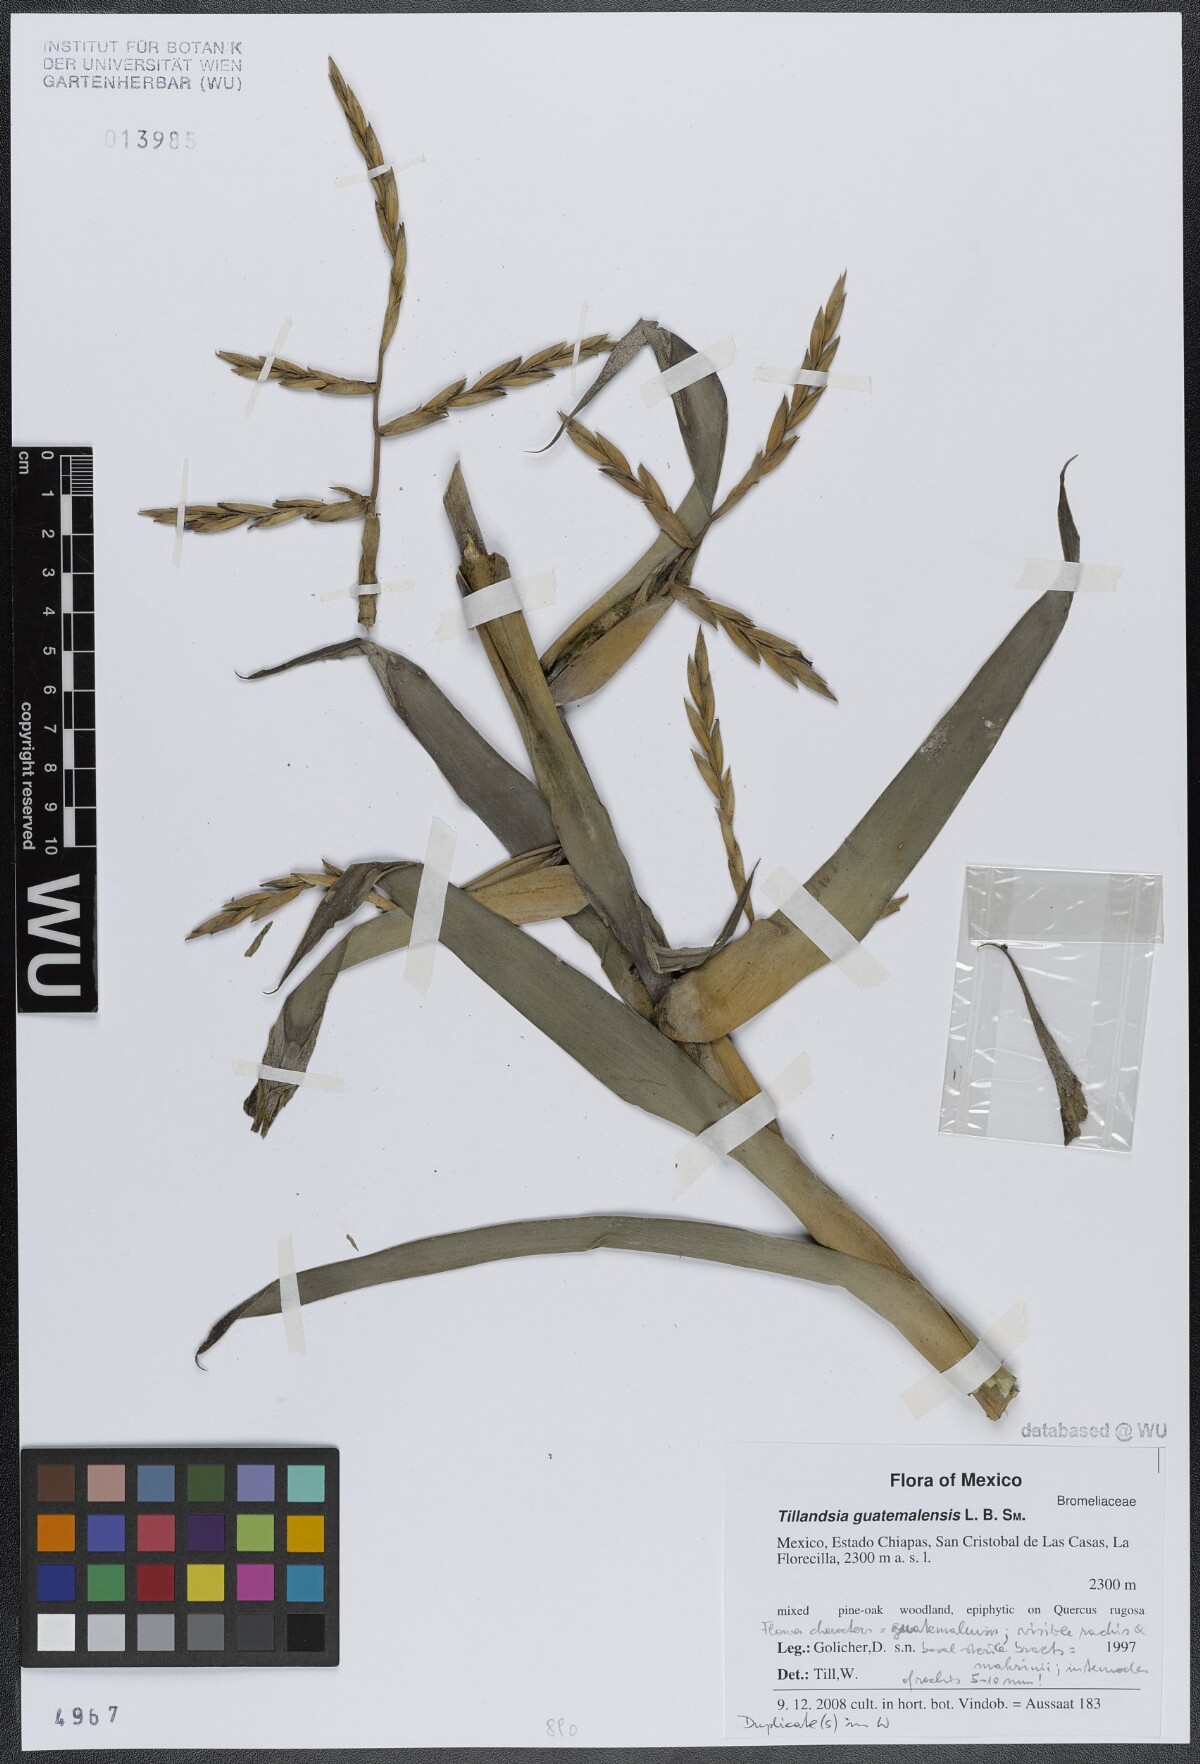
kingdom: Plantae
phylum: Tracheophyta
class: Liliopsida
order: Poales
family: Bromeliaceae
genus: Tillandsia
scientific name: Tillandsia guatemalensis
